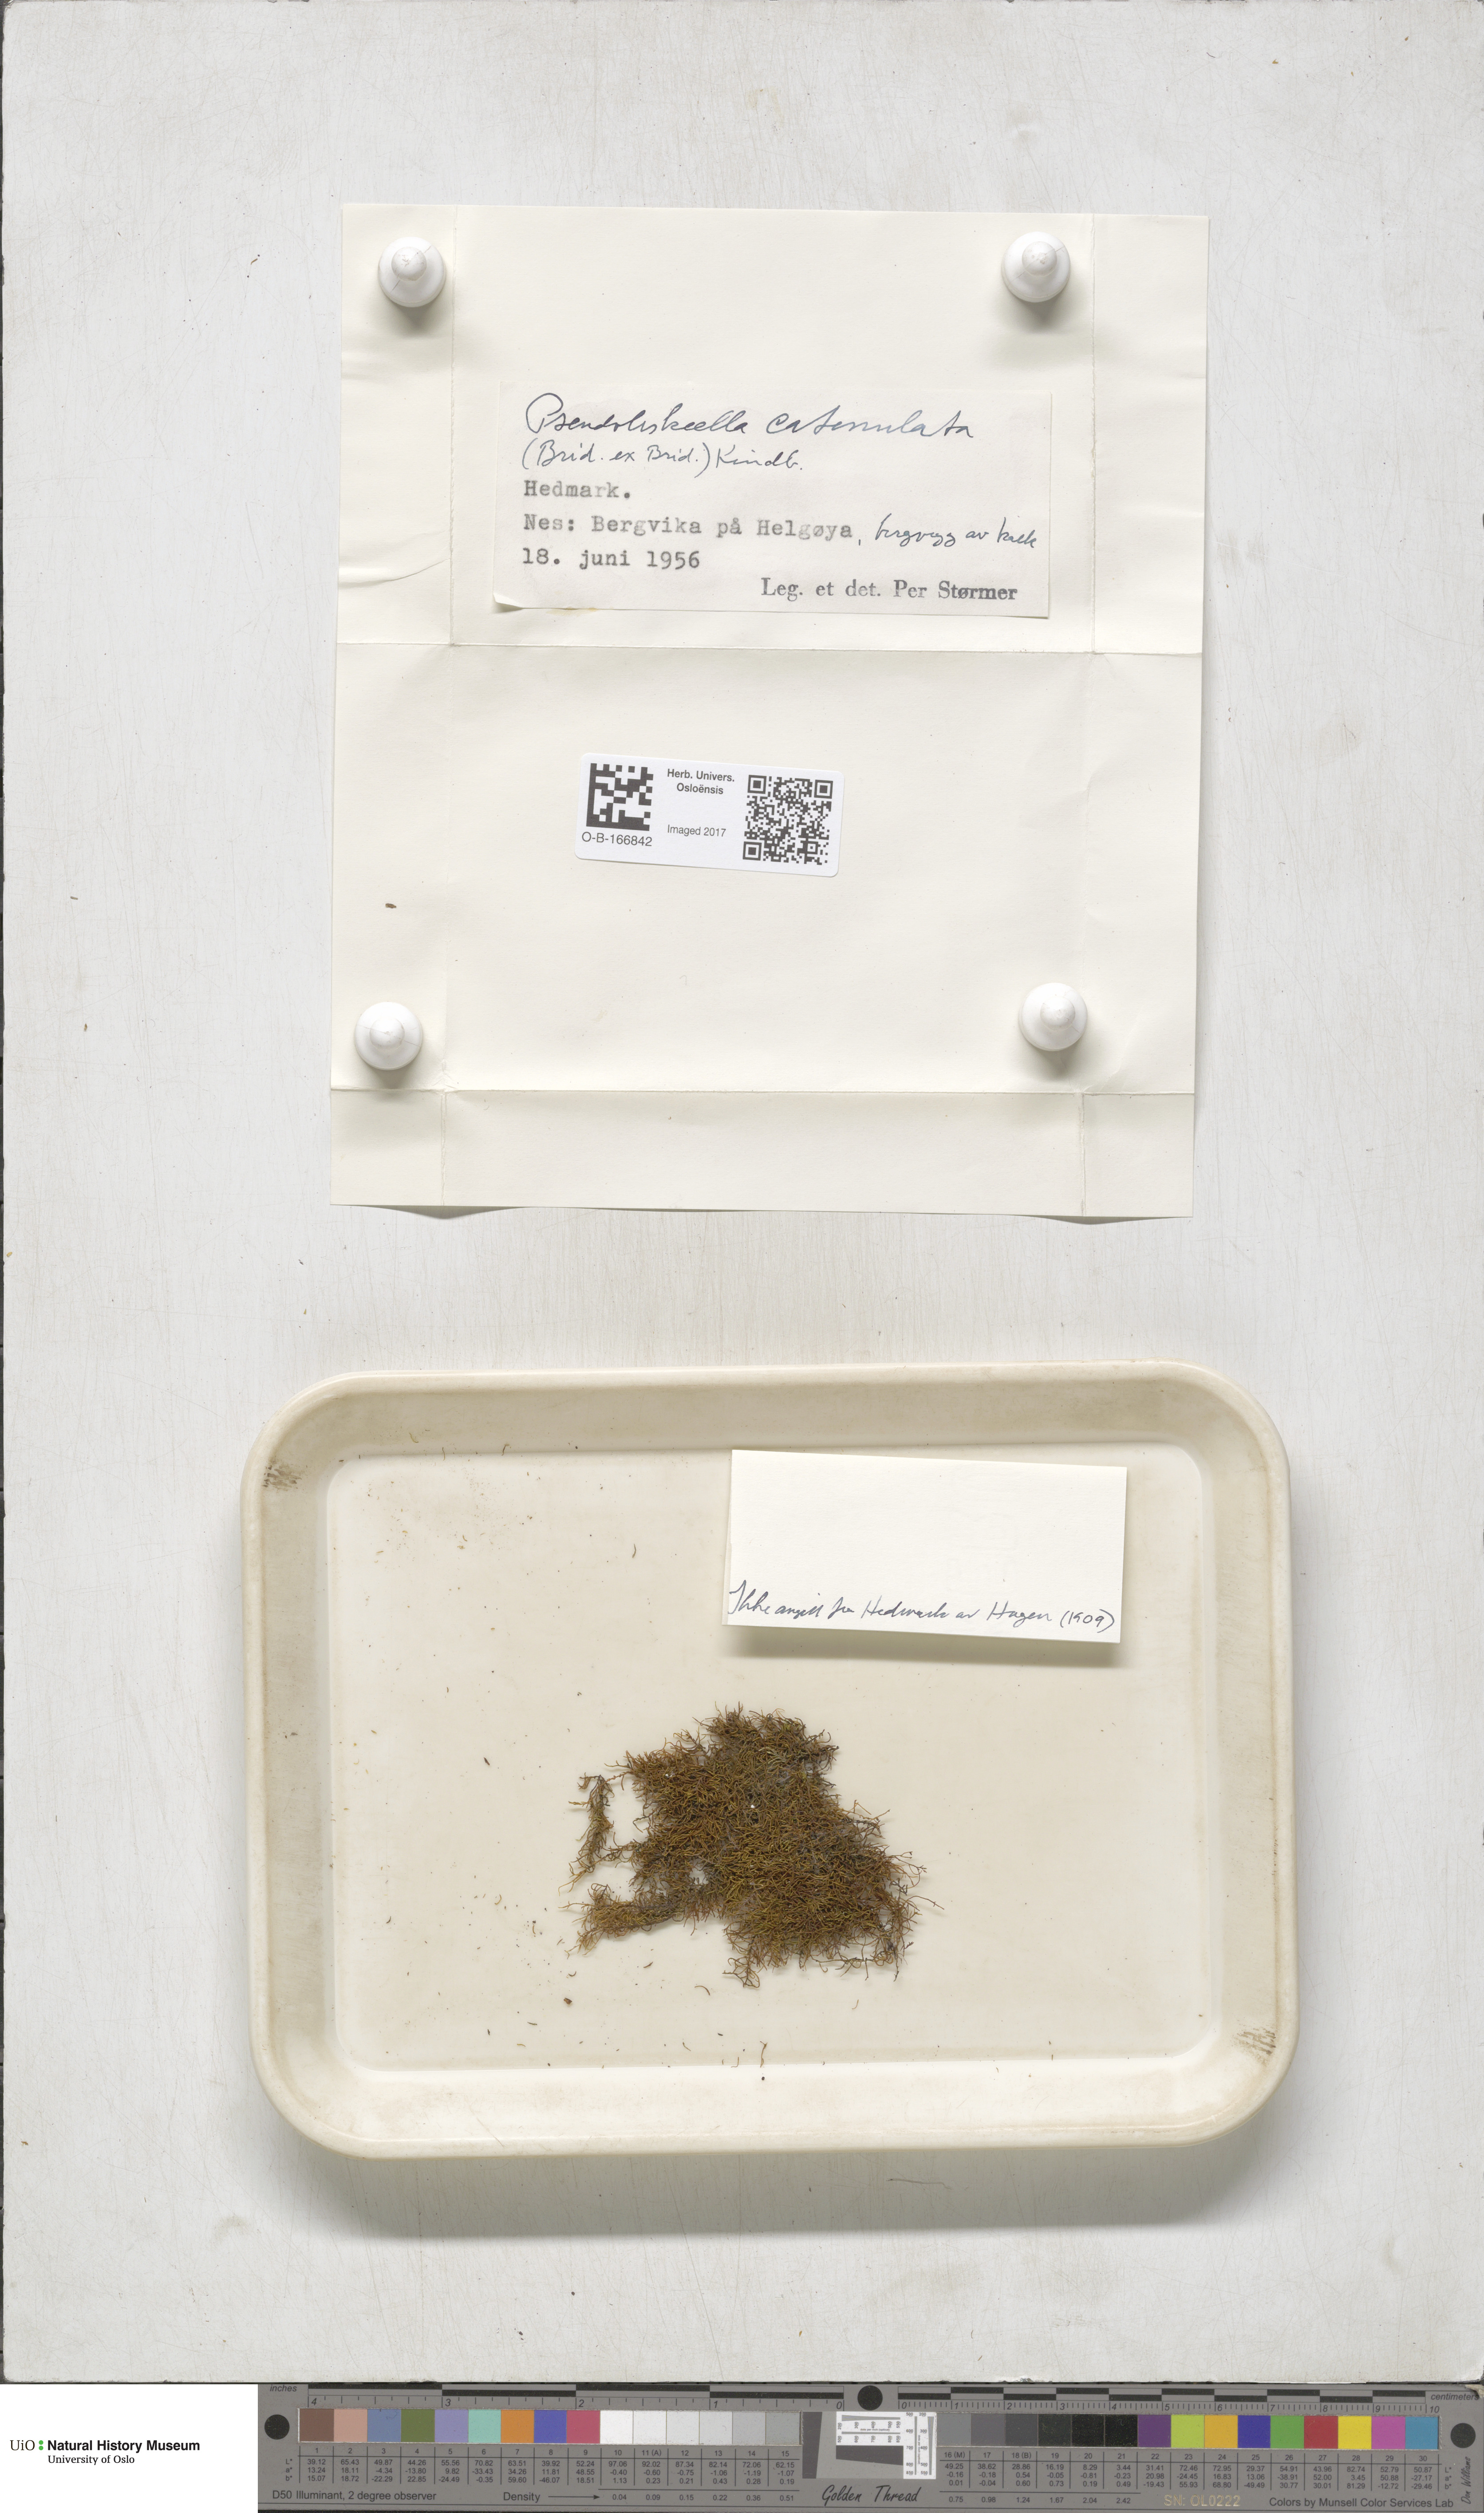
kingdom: Plantae
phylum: Bryophyta
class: Bryopsida
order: Hypnales
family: Pseudoleskeellaceae
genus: Pseudoleskeella
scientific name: Pseudoleskeella catenulata
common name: Chained leskea
